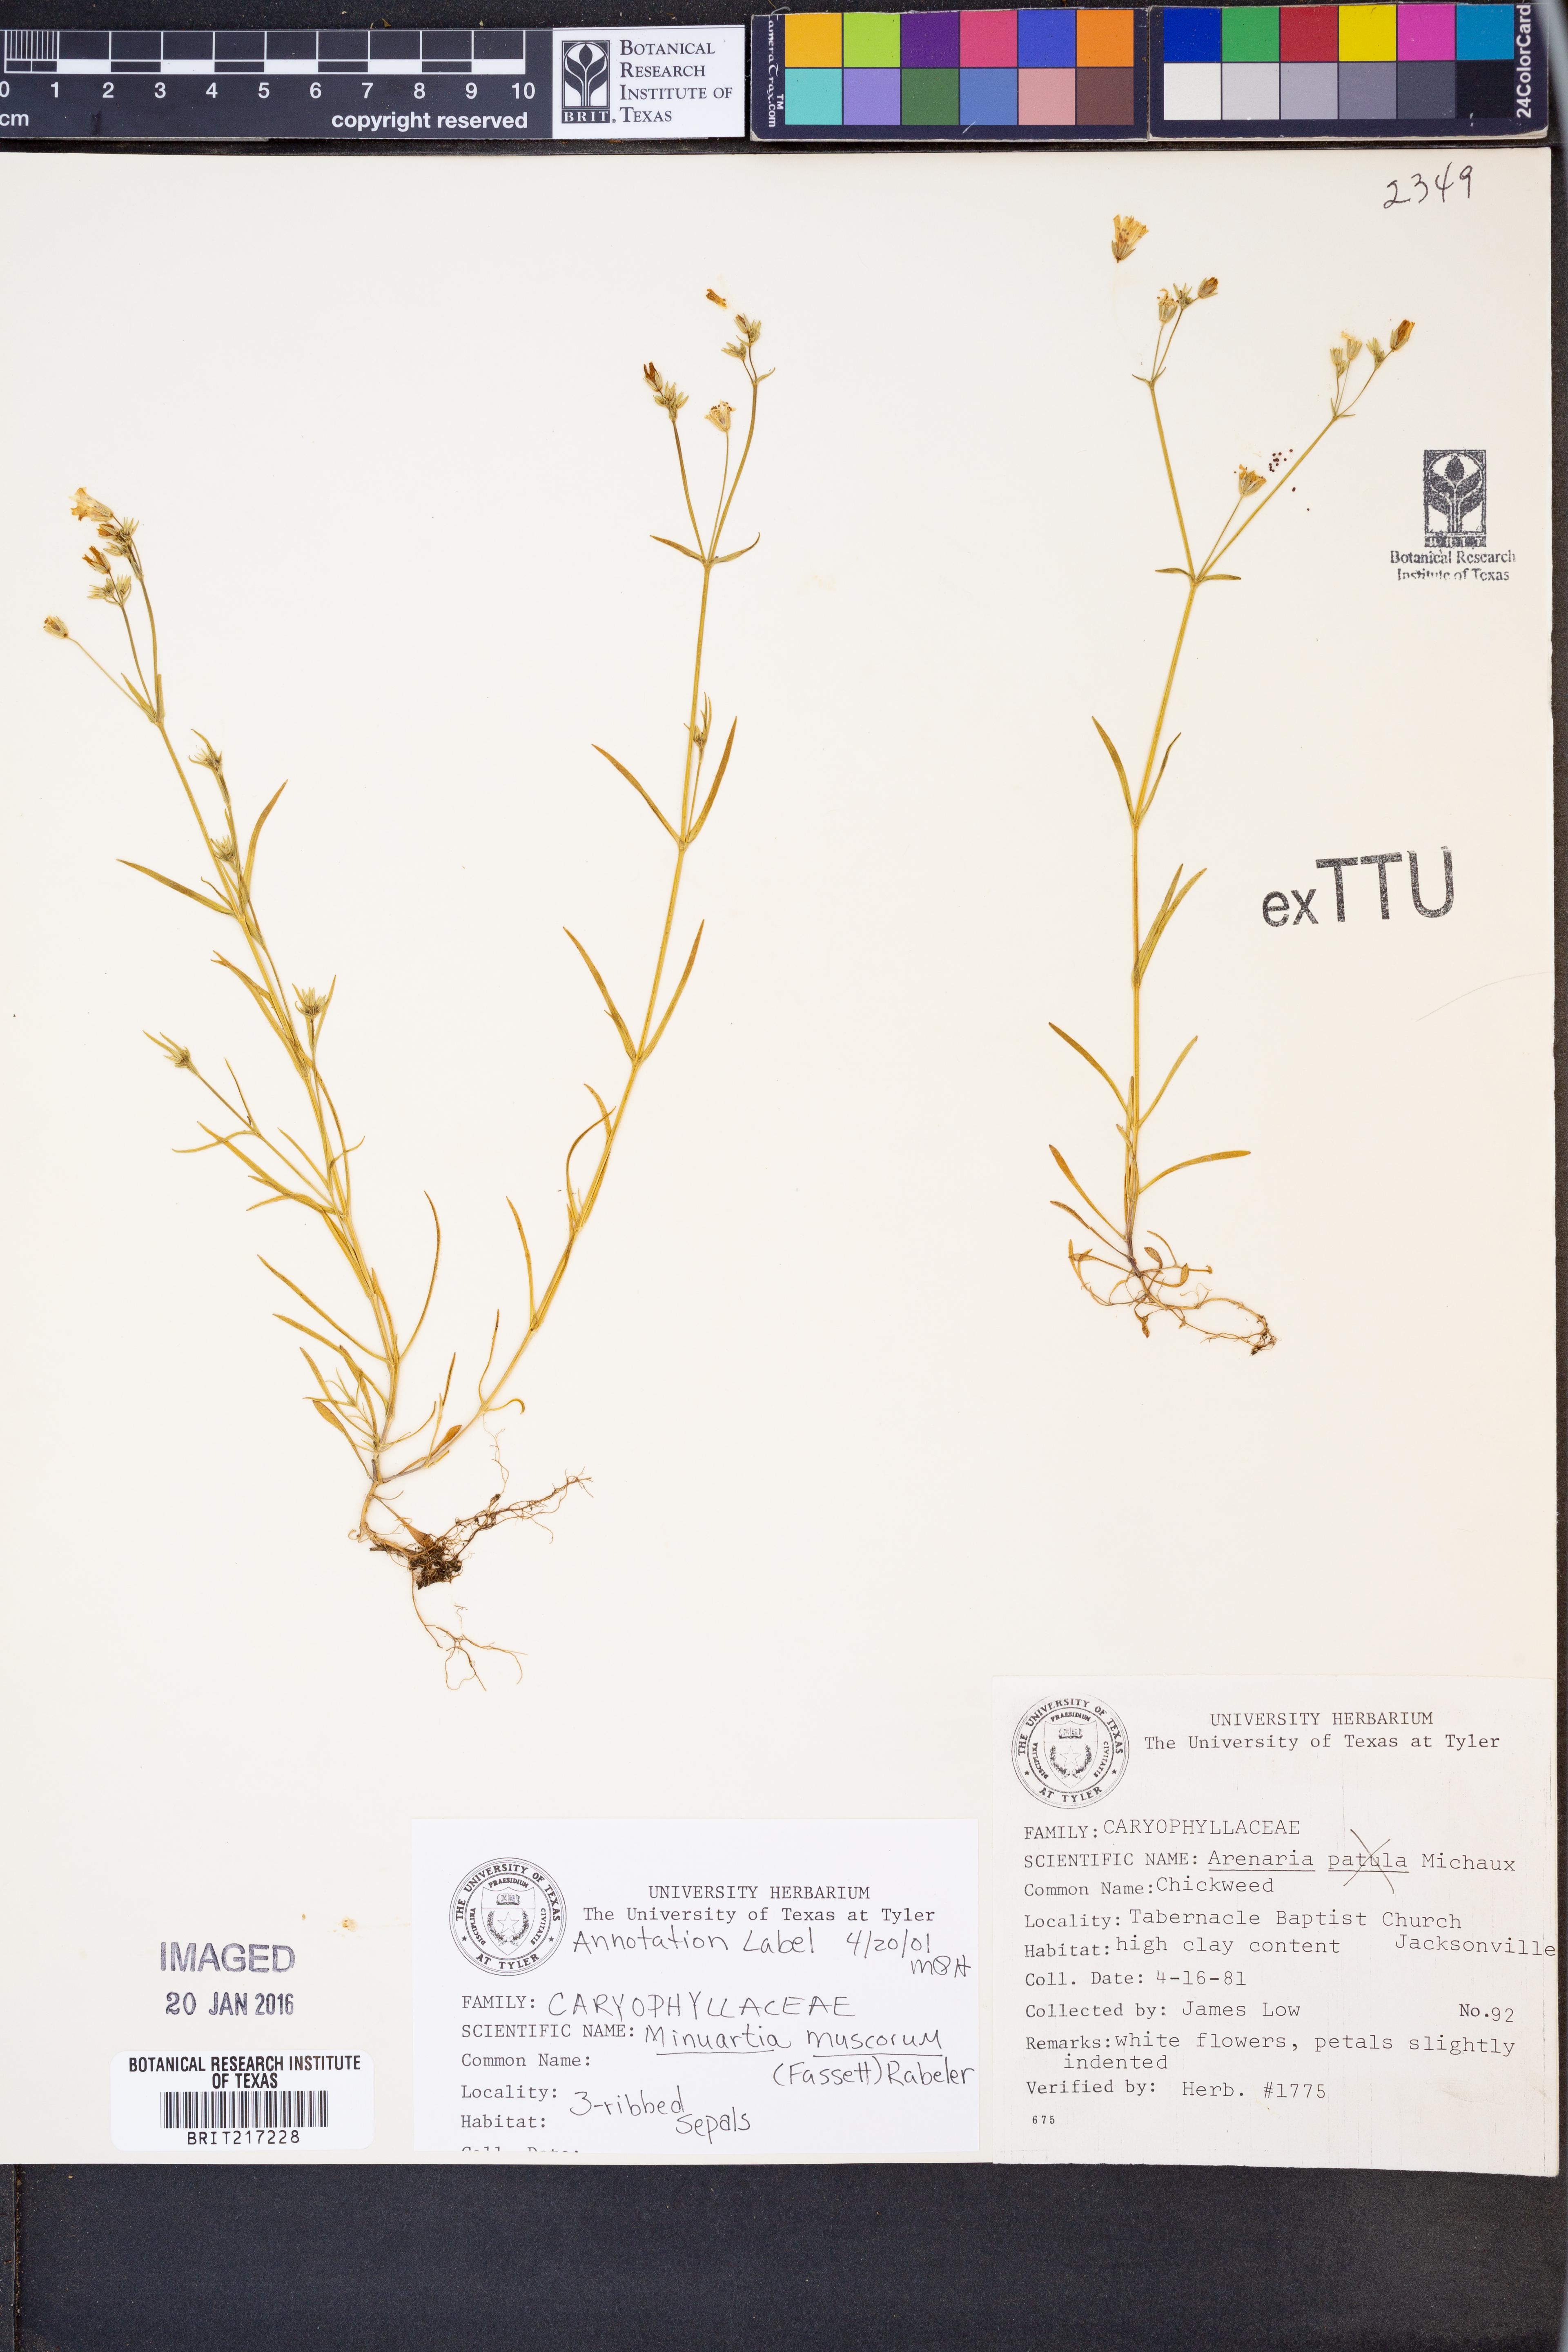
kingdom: Plantae
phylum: Tracheophyta
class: Magnoliopsida
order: Caryophyllales
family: Caryophyllaceae
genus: Mononeuria
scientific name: Mononeuria muscorum
